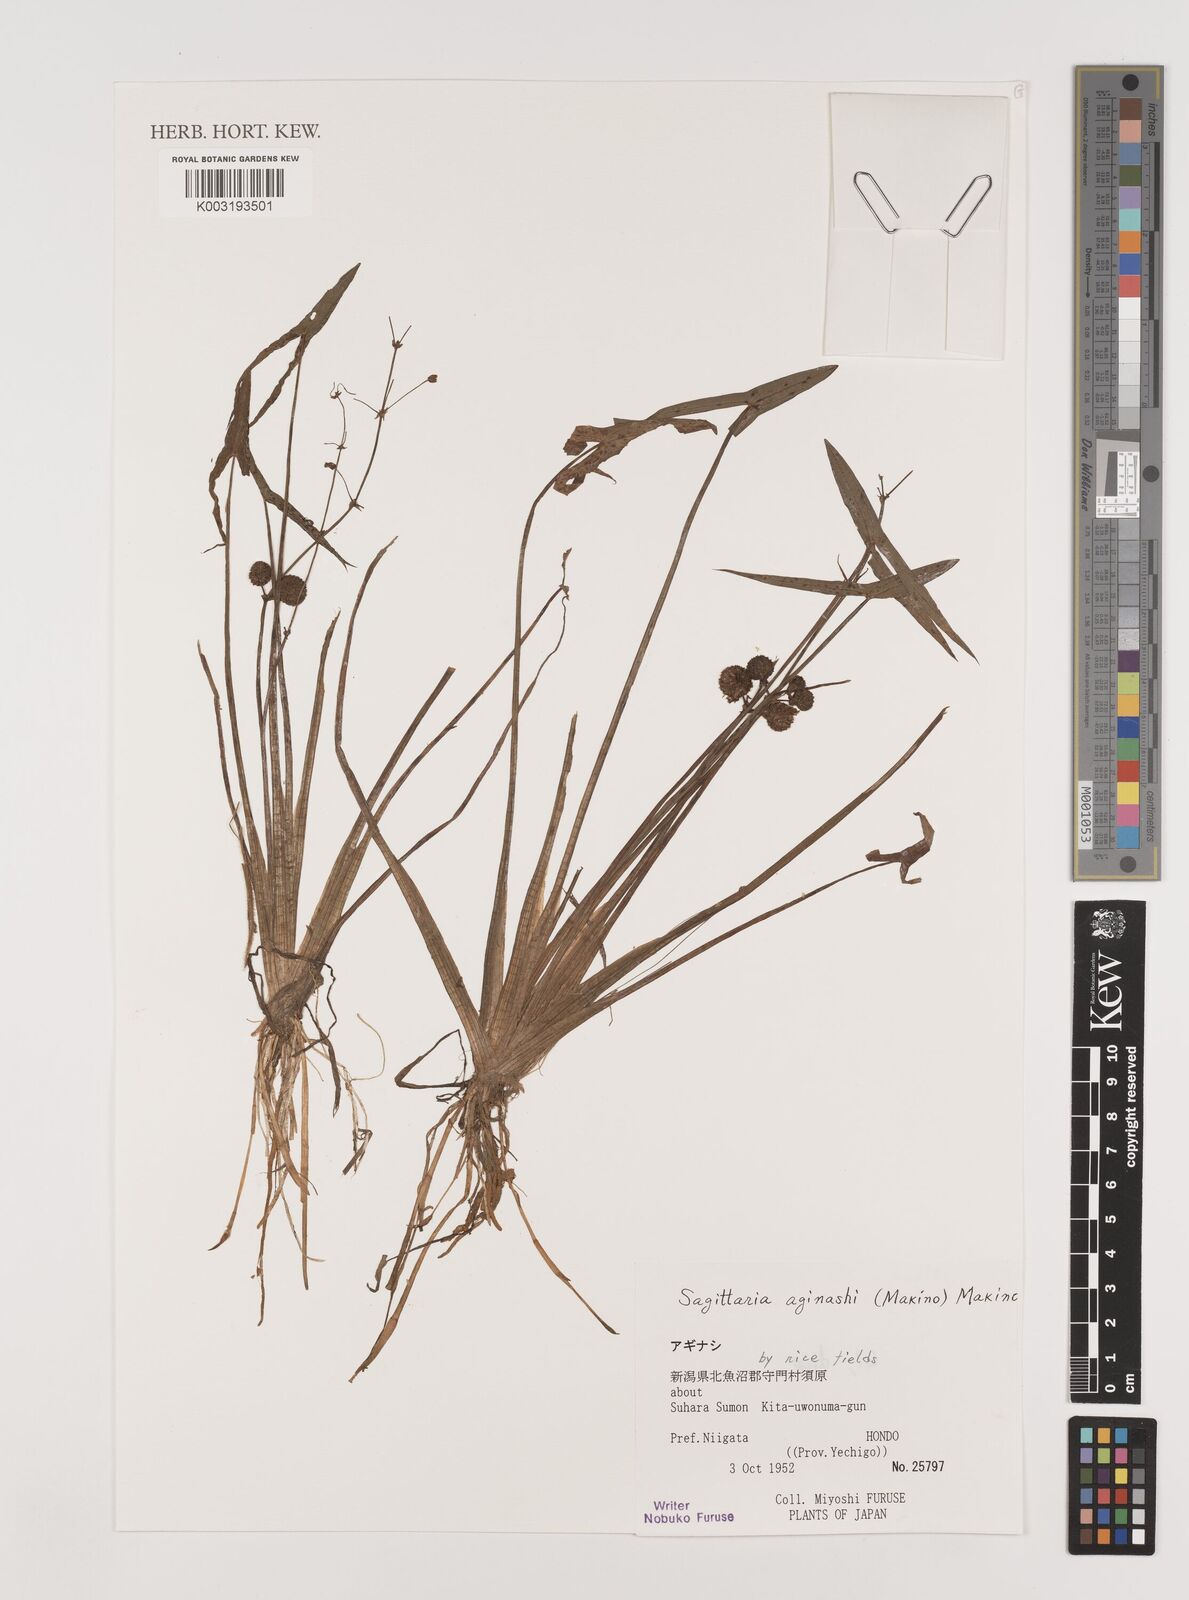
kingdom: Plantae
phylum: Tracheophyta
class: Liliopsida
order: Alismatales
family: Alismataceae
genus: Sagittaria
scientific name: Sagittaria aginashi
